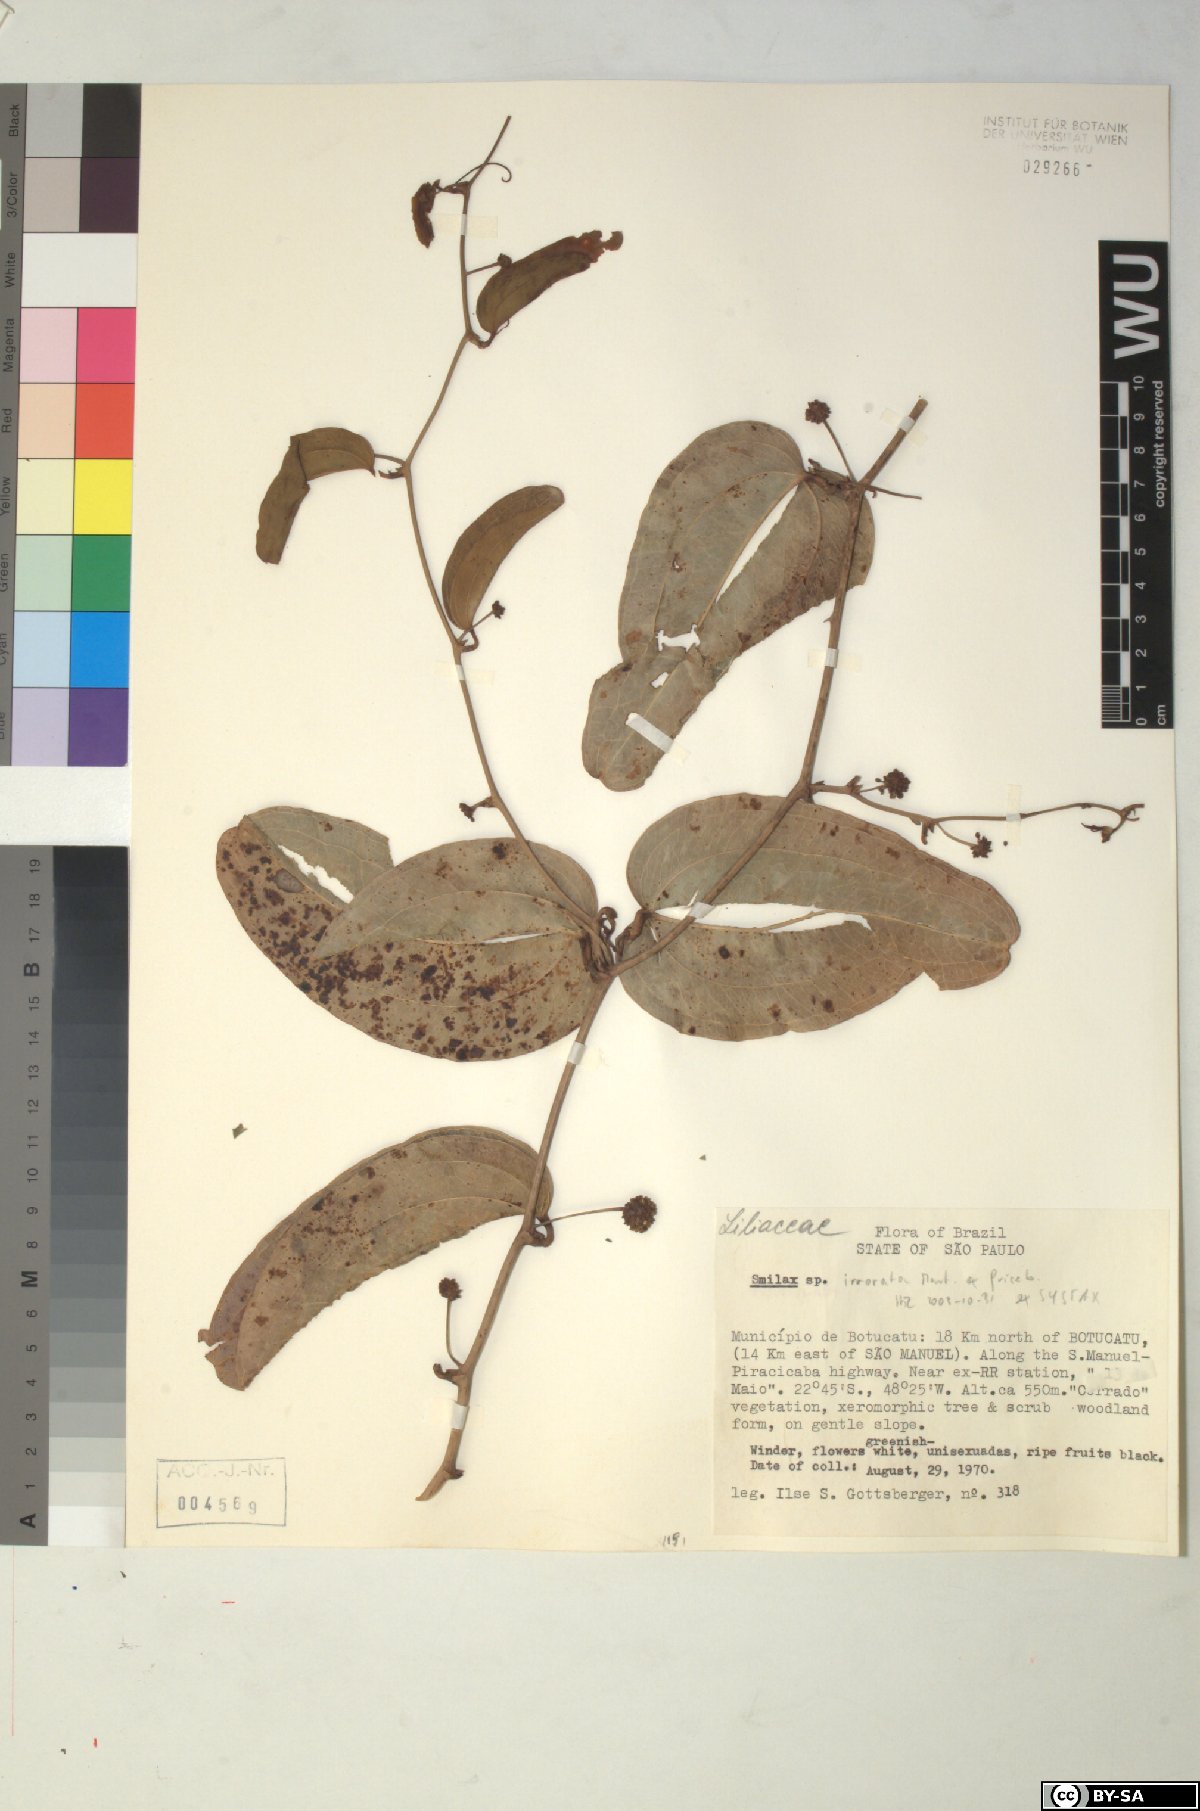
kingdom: Plantae
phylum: Tracheophyta
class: Liliopsida
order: Liliales
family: Smilacaceae
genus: Smilax
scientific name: Smilax irrorata
